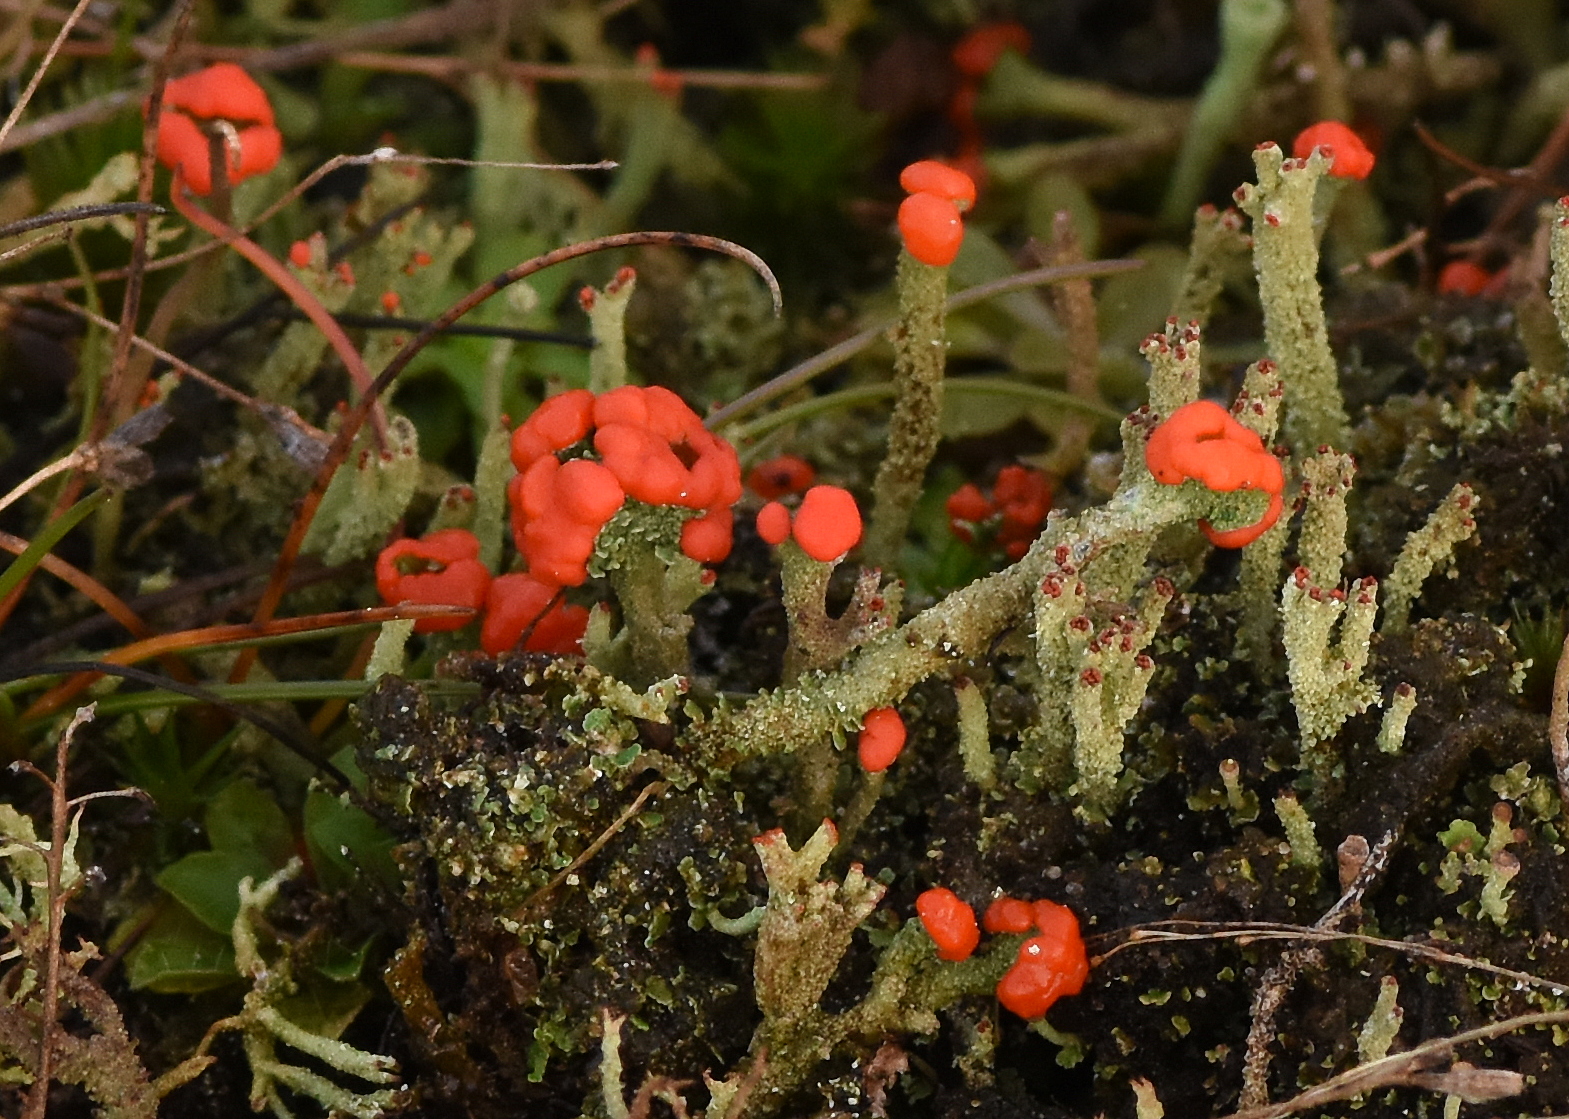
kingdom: Fungi
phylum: Ascomycota
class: Lecanoromycetes
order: Lecanorales
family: Cladoniaceae
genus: Cladonia
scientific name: Cladonia floerkeana
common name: lakrød bægerlav
